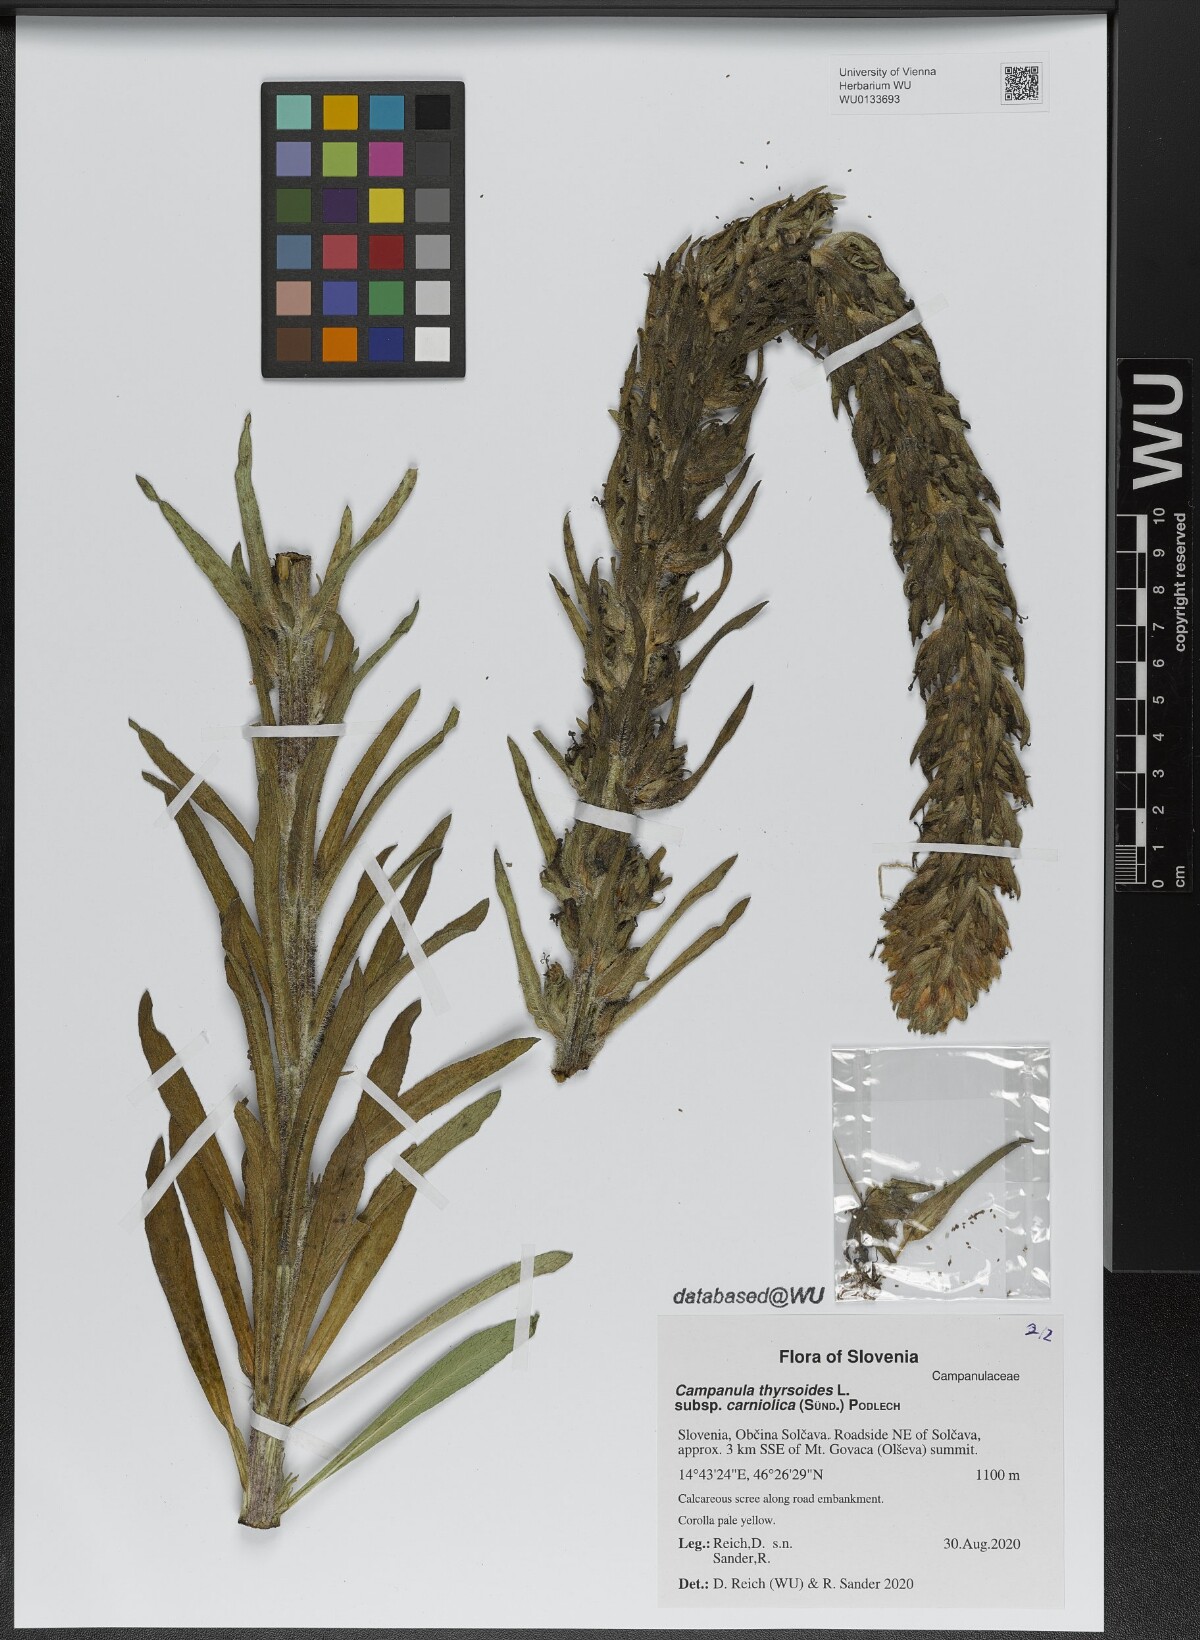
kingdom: Plantae
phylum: Tracheophyta
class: Magnoliopsida
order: Asterales
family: Campanulaceae
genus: Campanula
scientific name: Campanula thyrsoides
